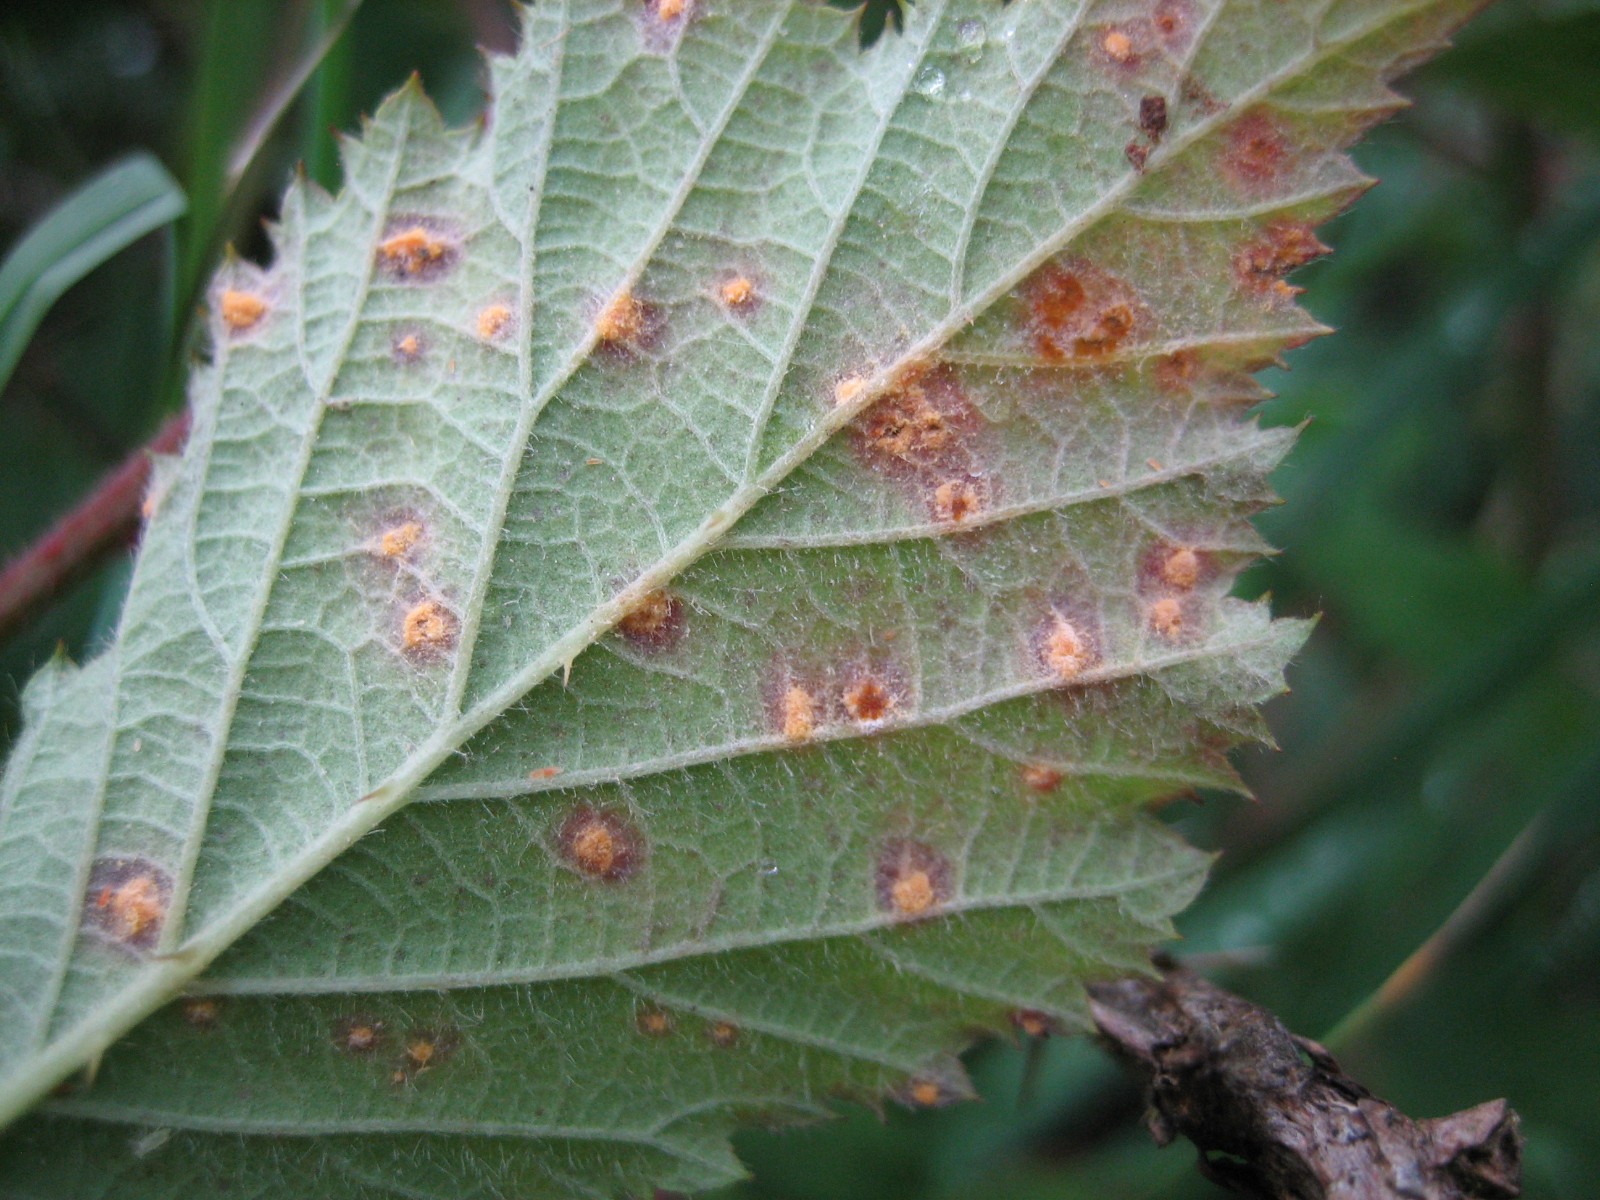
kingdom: Fungi
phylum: Basidiomycota
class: Pucciniomycetes
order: Pucciniales
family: Phragmidiaceae
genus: Phragmidium
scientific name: Phragmidium
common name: flercellerust
